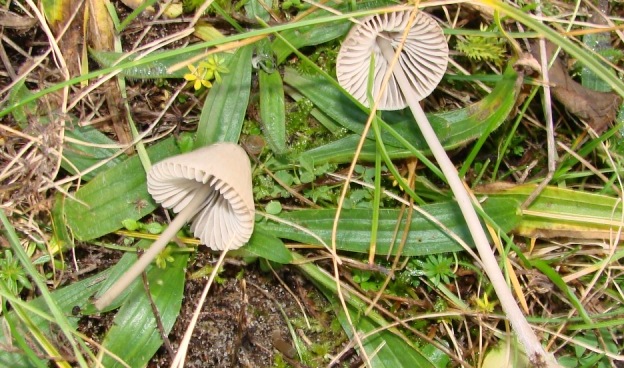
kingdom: Fungi
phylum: Basidiomycota
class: Agaricomycetes
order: Agaricales
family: Mycenaceae
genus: Mycena
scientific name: Mycena aetites
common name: plæne-huesvamp
